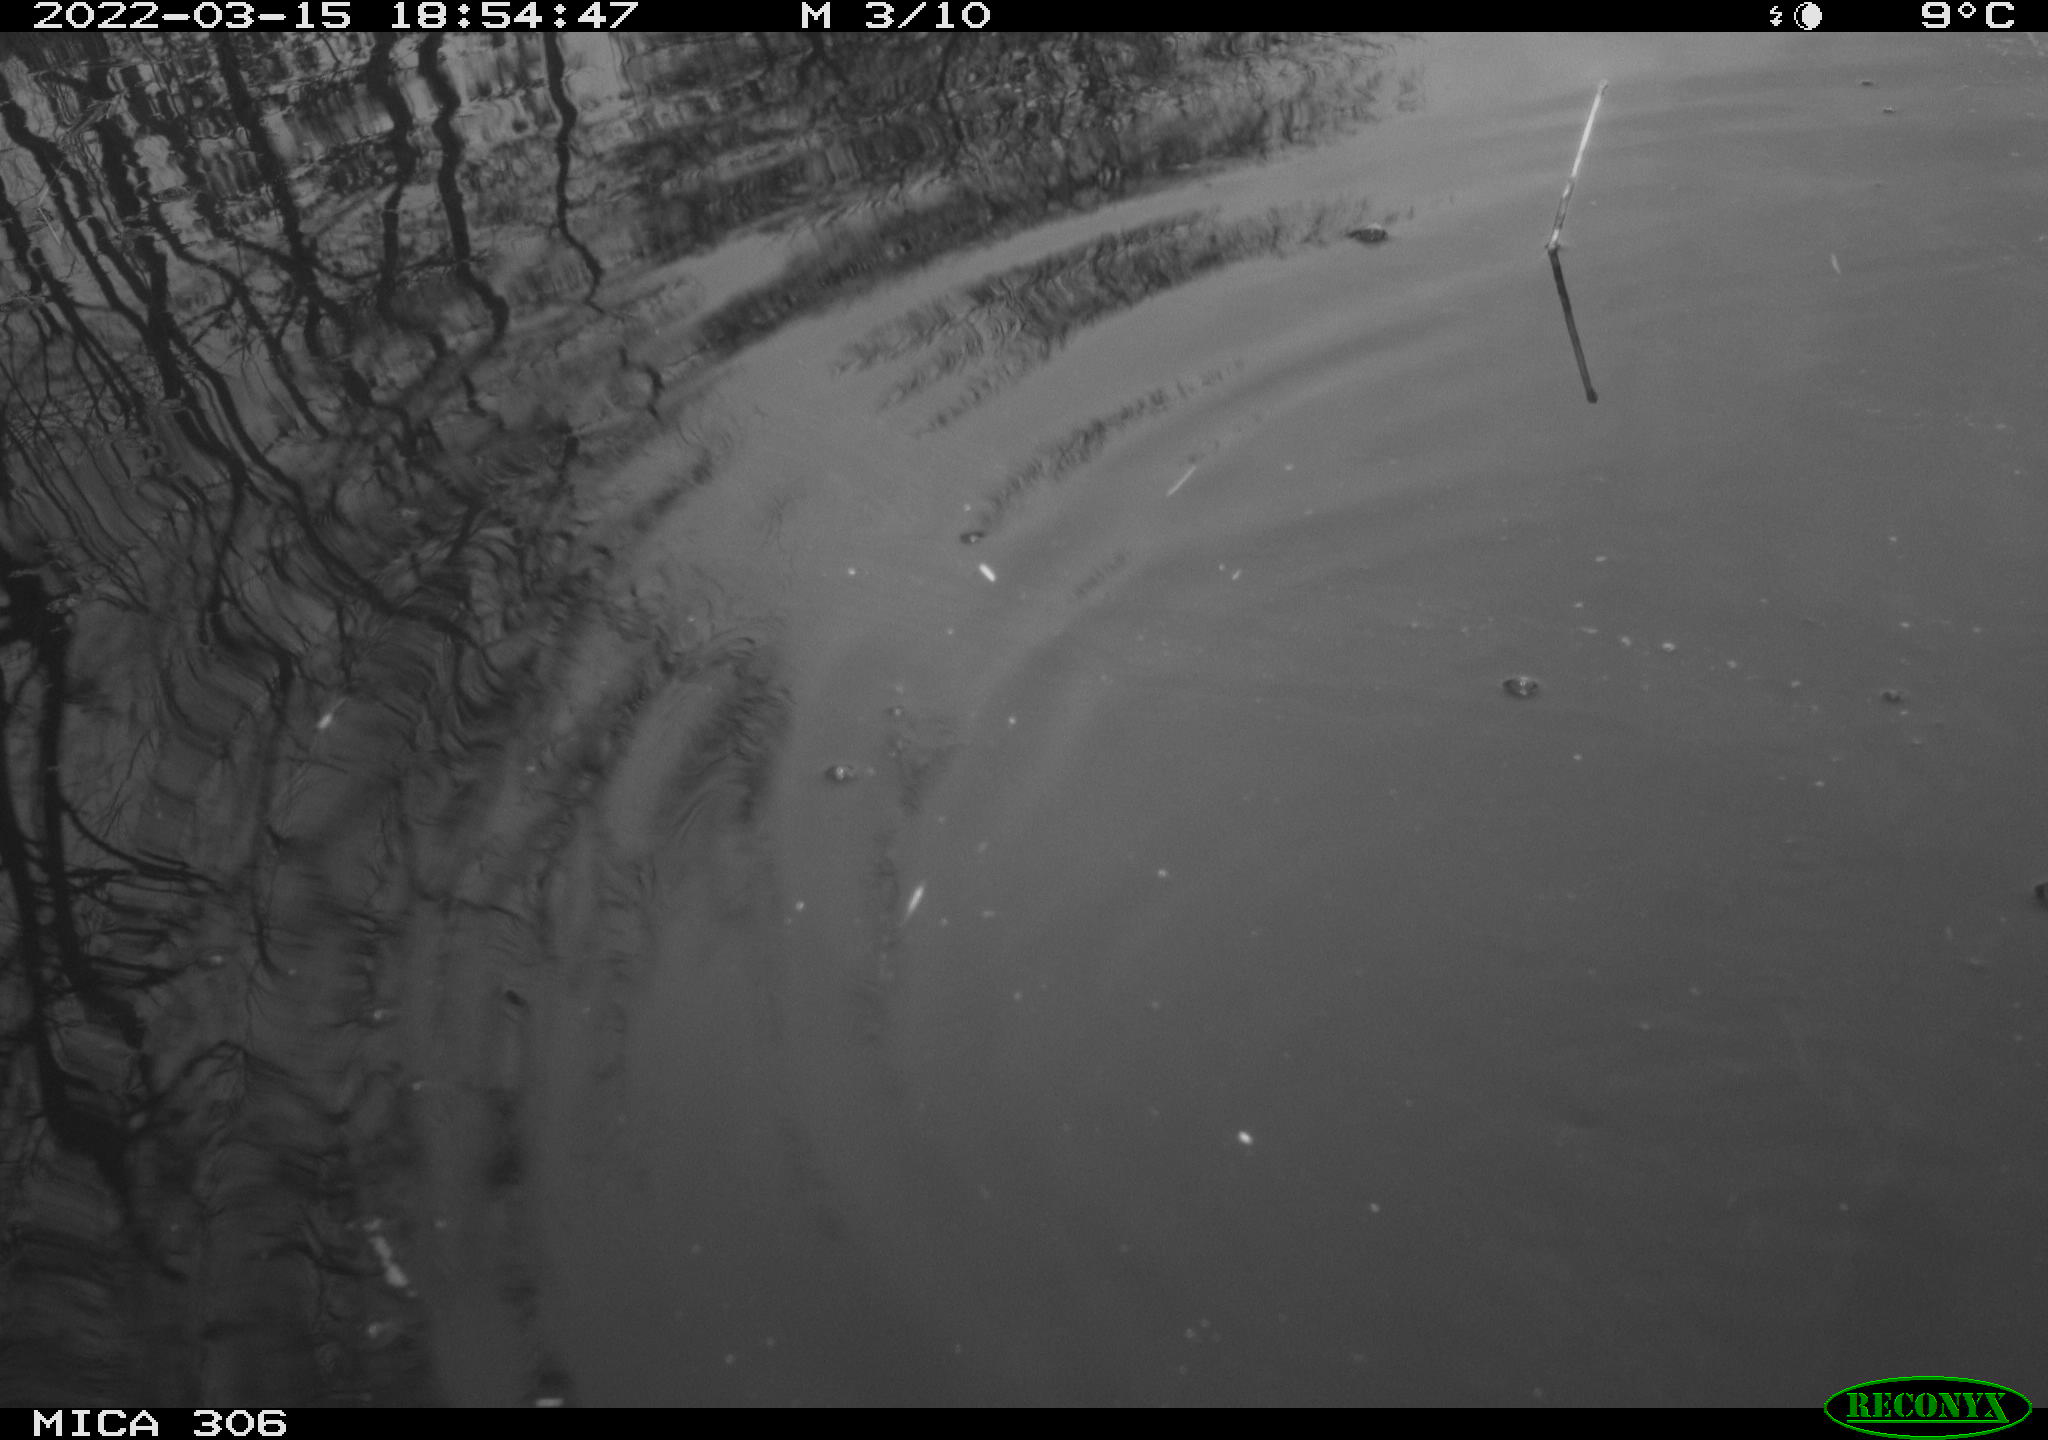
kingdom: Animalia
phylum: Chordata
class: Aves
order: Anseriformes
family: Anatidae
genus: Anas
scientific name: Anas platyrhynchos
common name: Mallard
